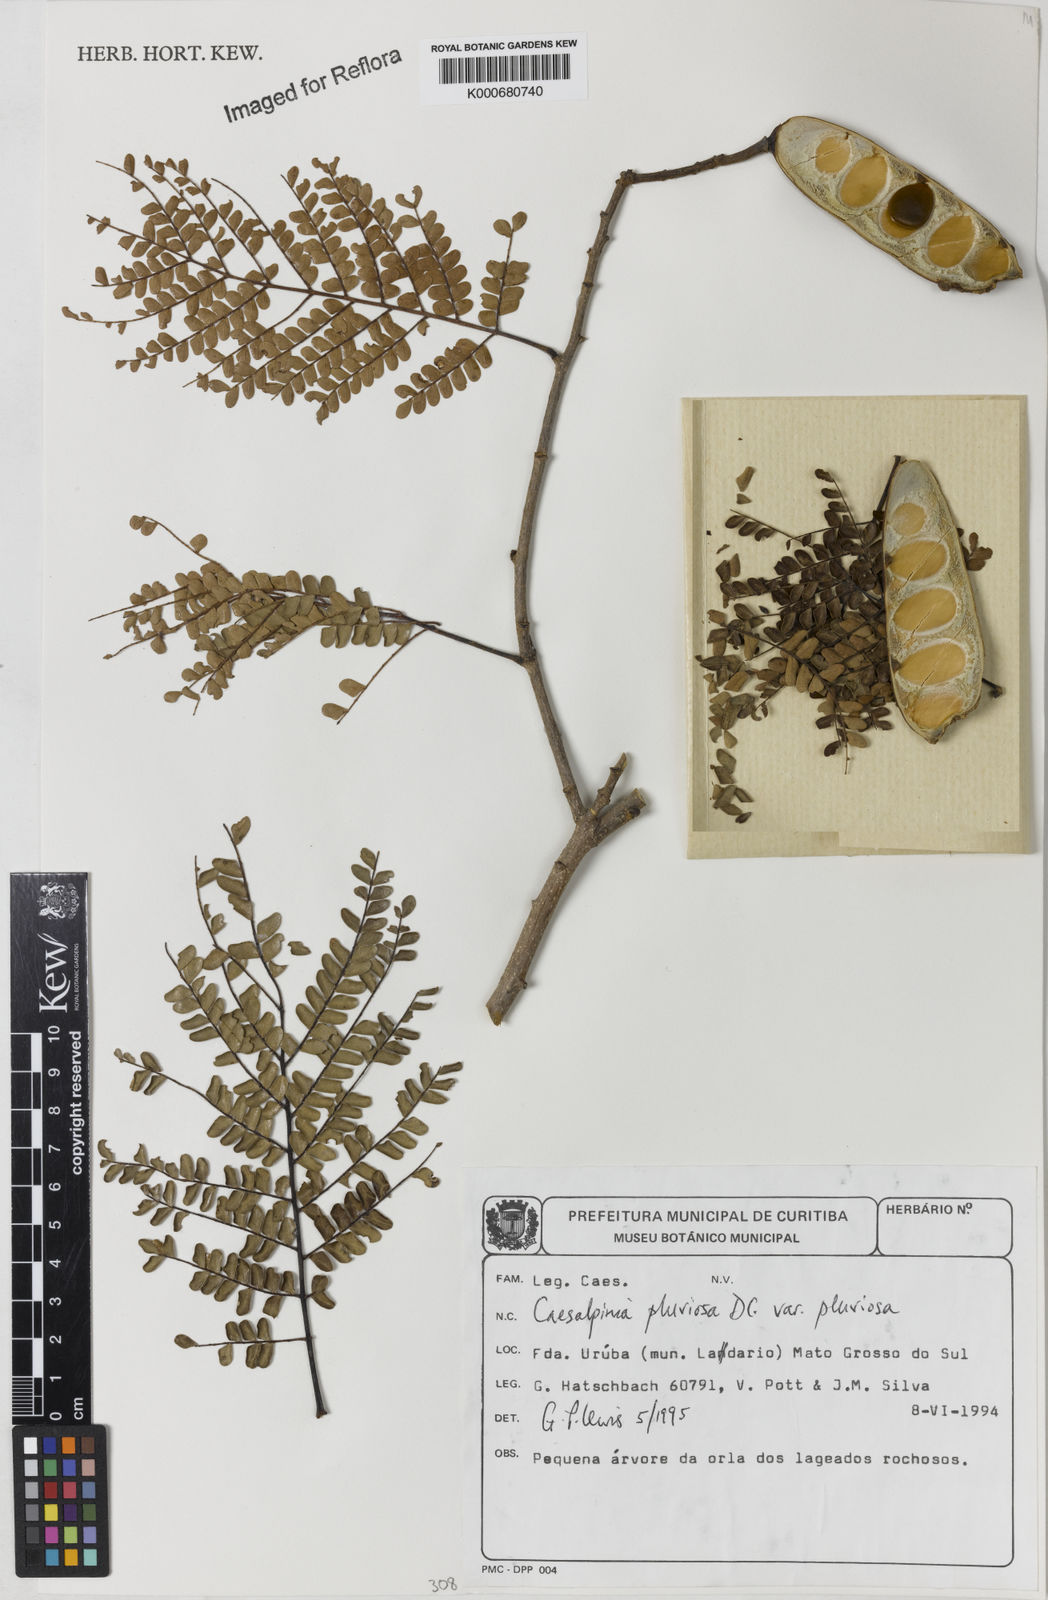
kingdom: Plantae
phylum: Tracheophyta
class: Magnoliopsida
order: Fabales
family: Fabaceae
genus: Cenostigma
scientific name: Cenostigma pluviosum
